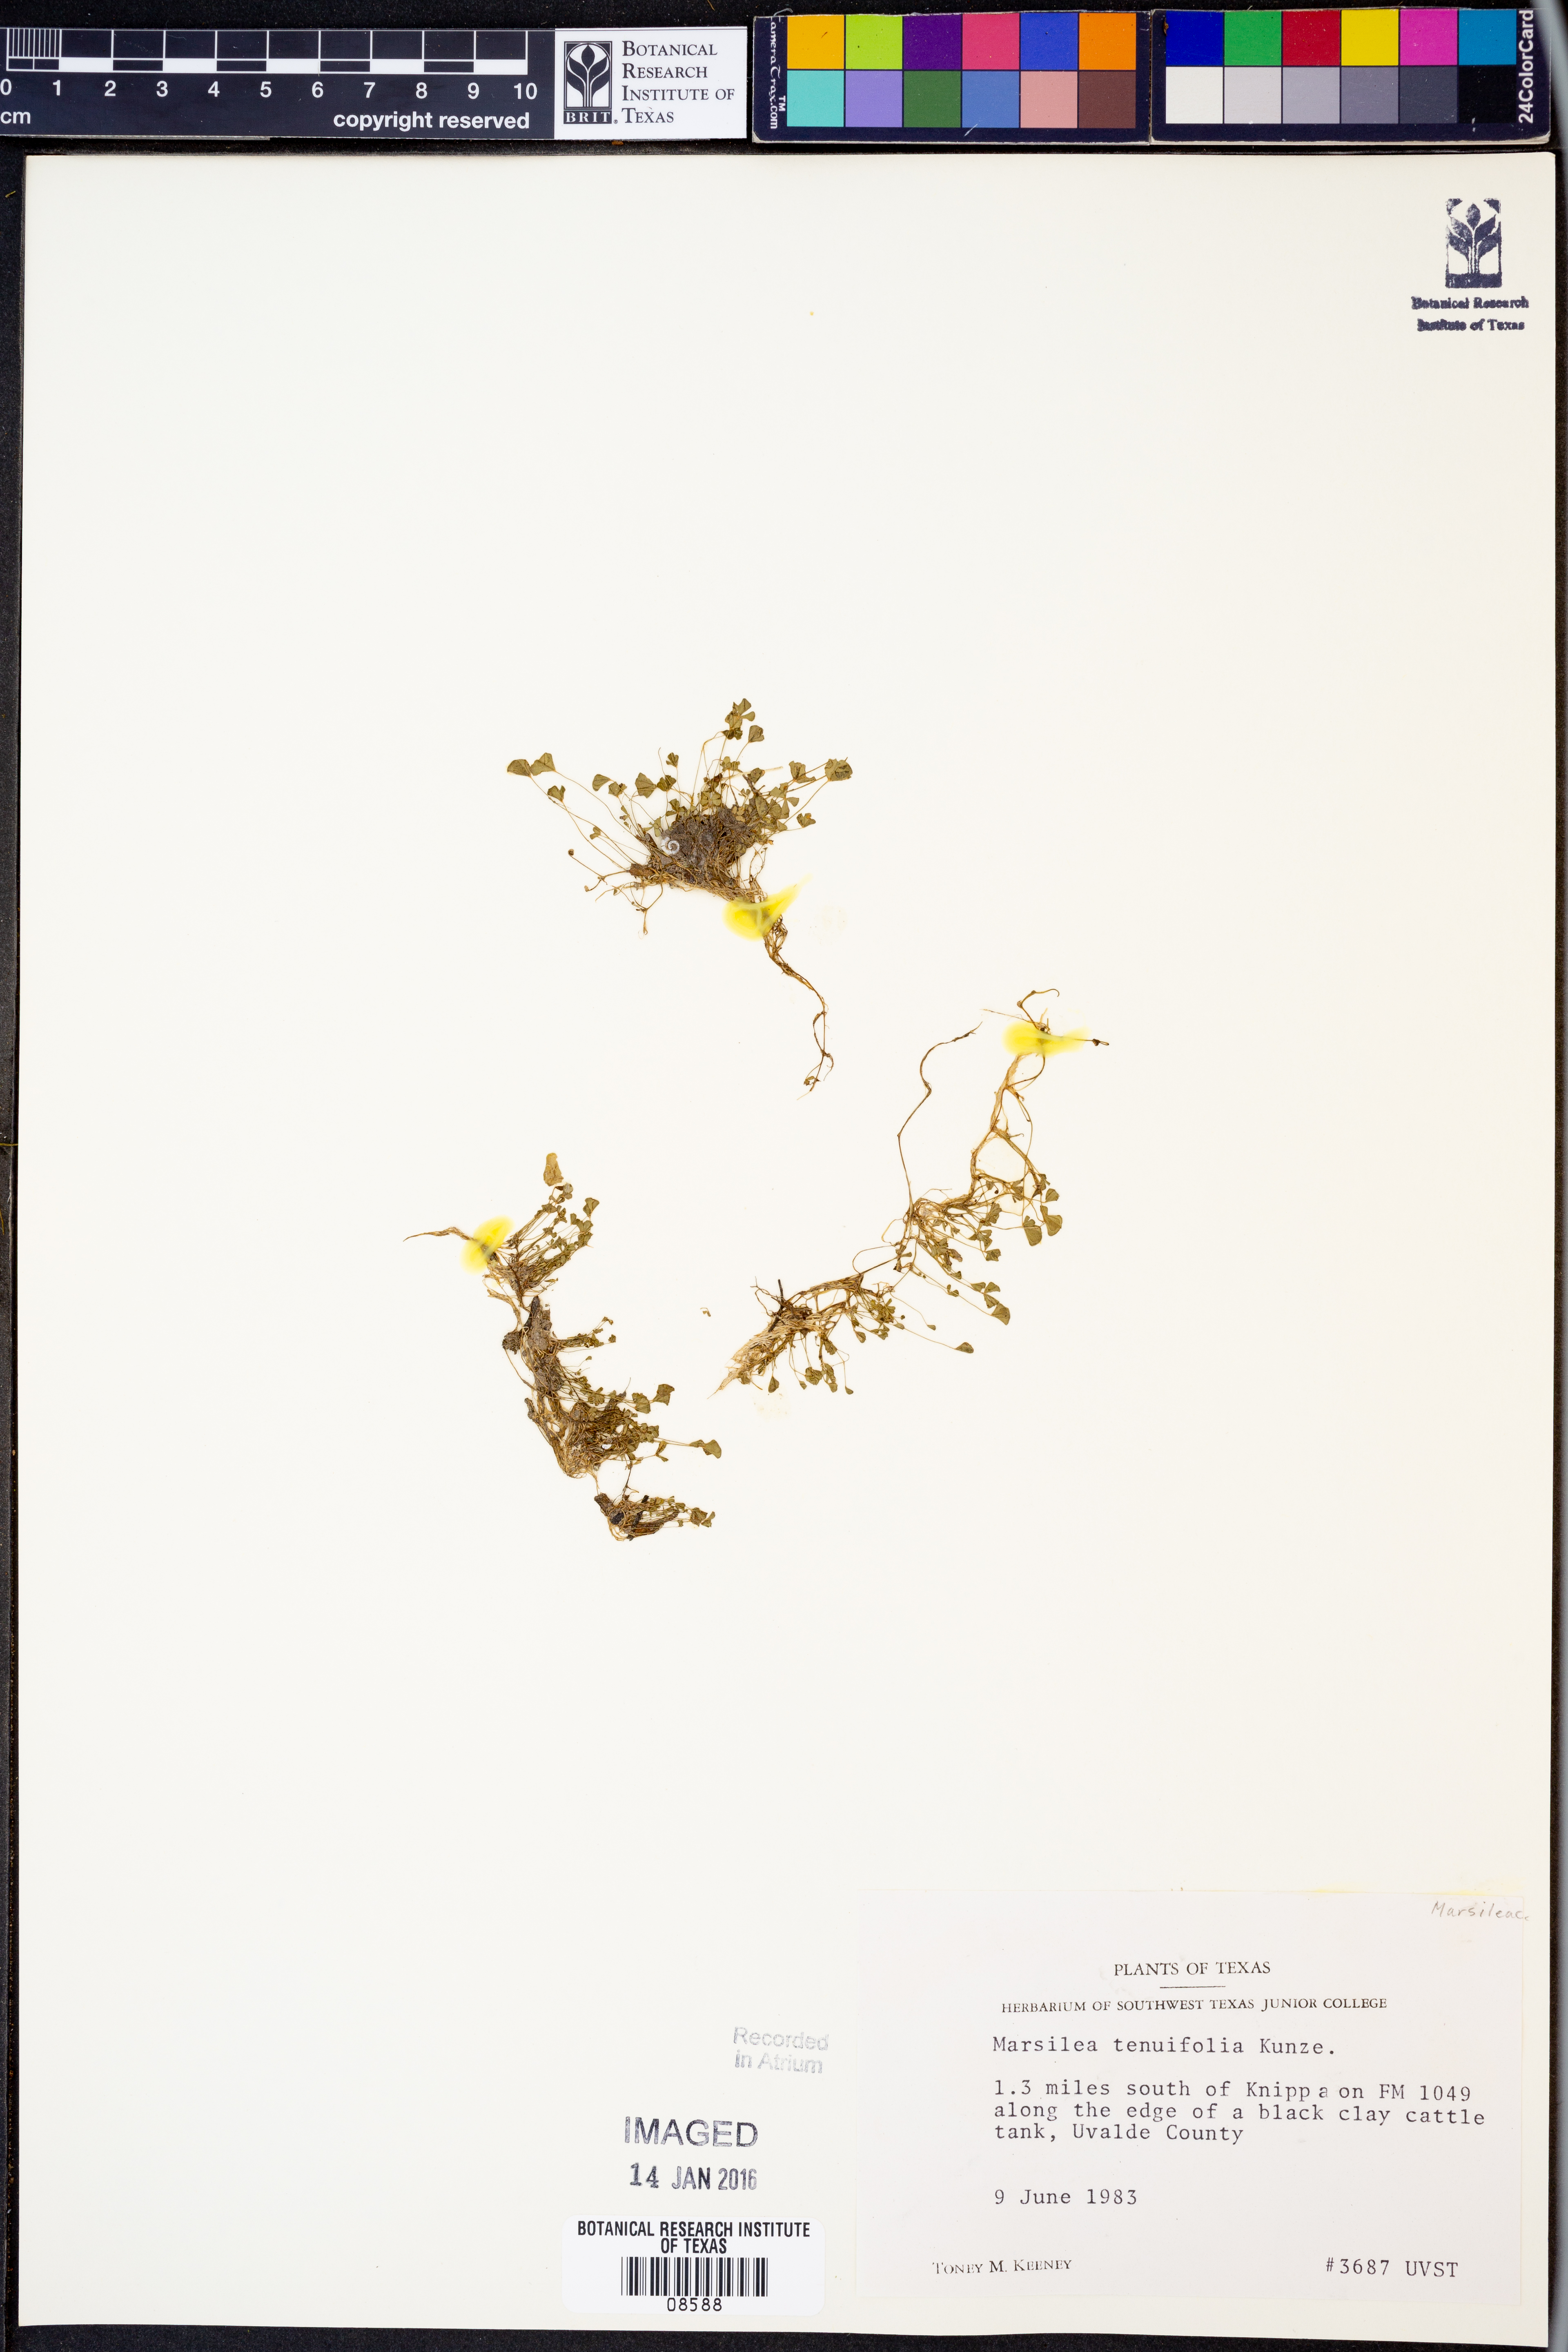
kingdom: Plantae
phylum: Tracheophyta
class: Polypodiopsida
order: Salviniales
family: Marsileaceae
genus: Marsilea
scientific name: Marsilea vestita
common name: Hooked-pepperwort
